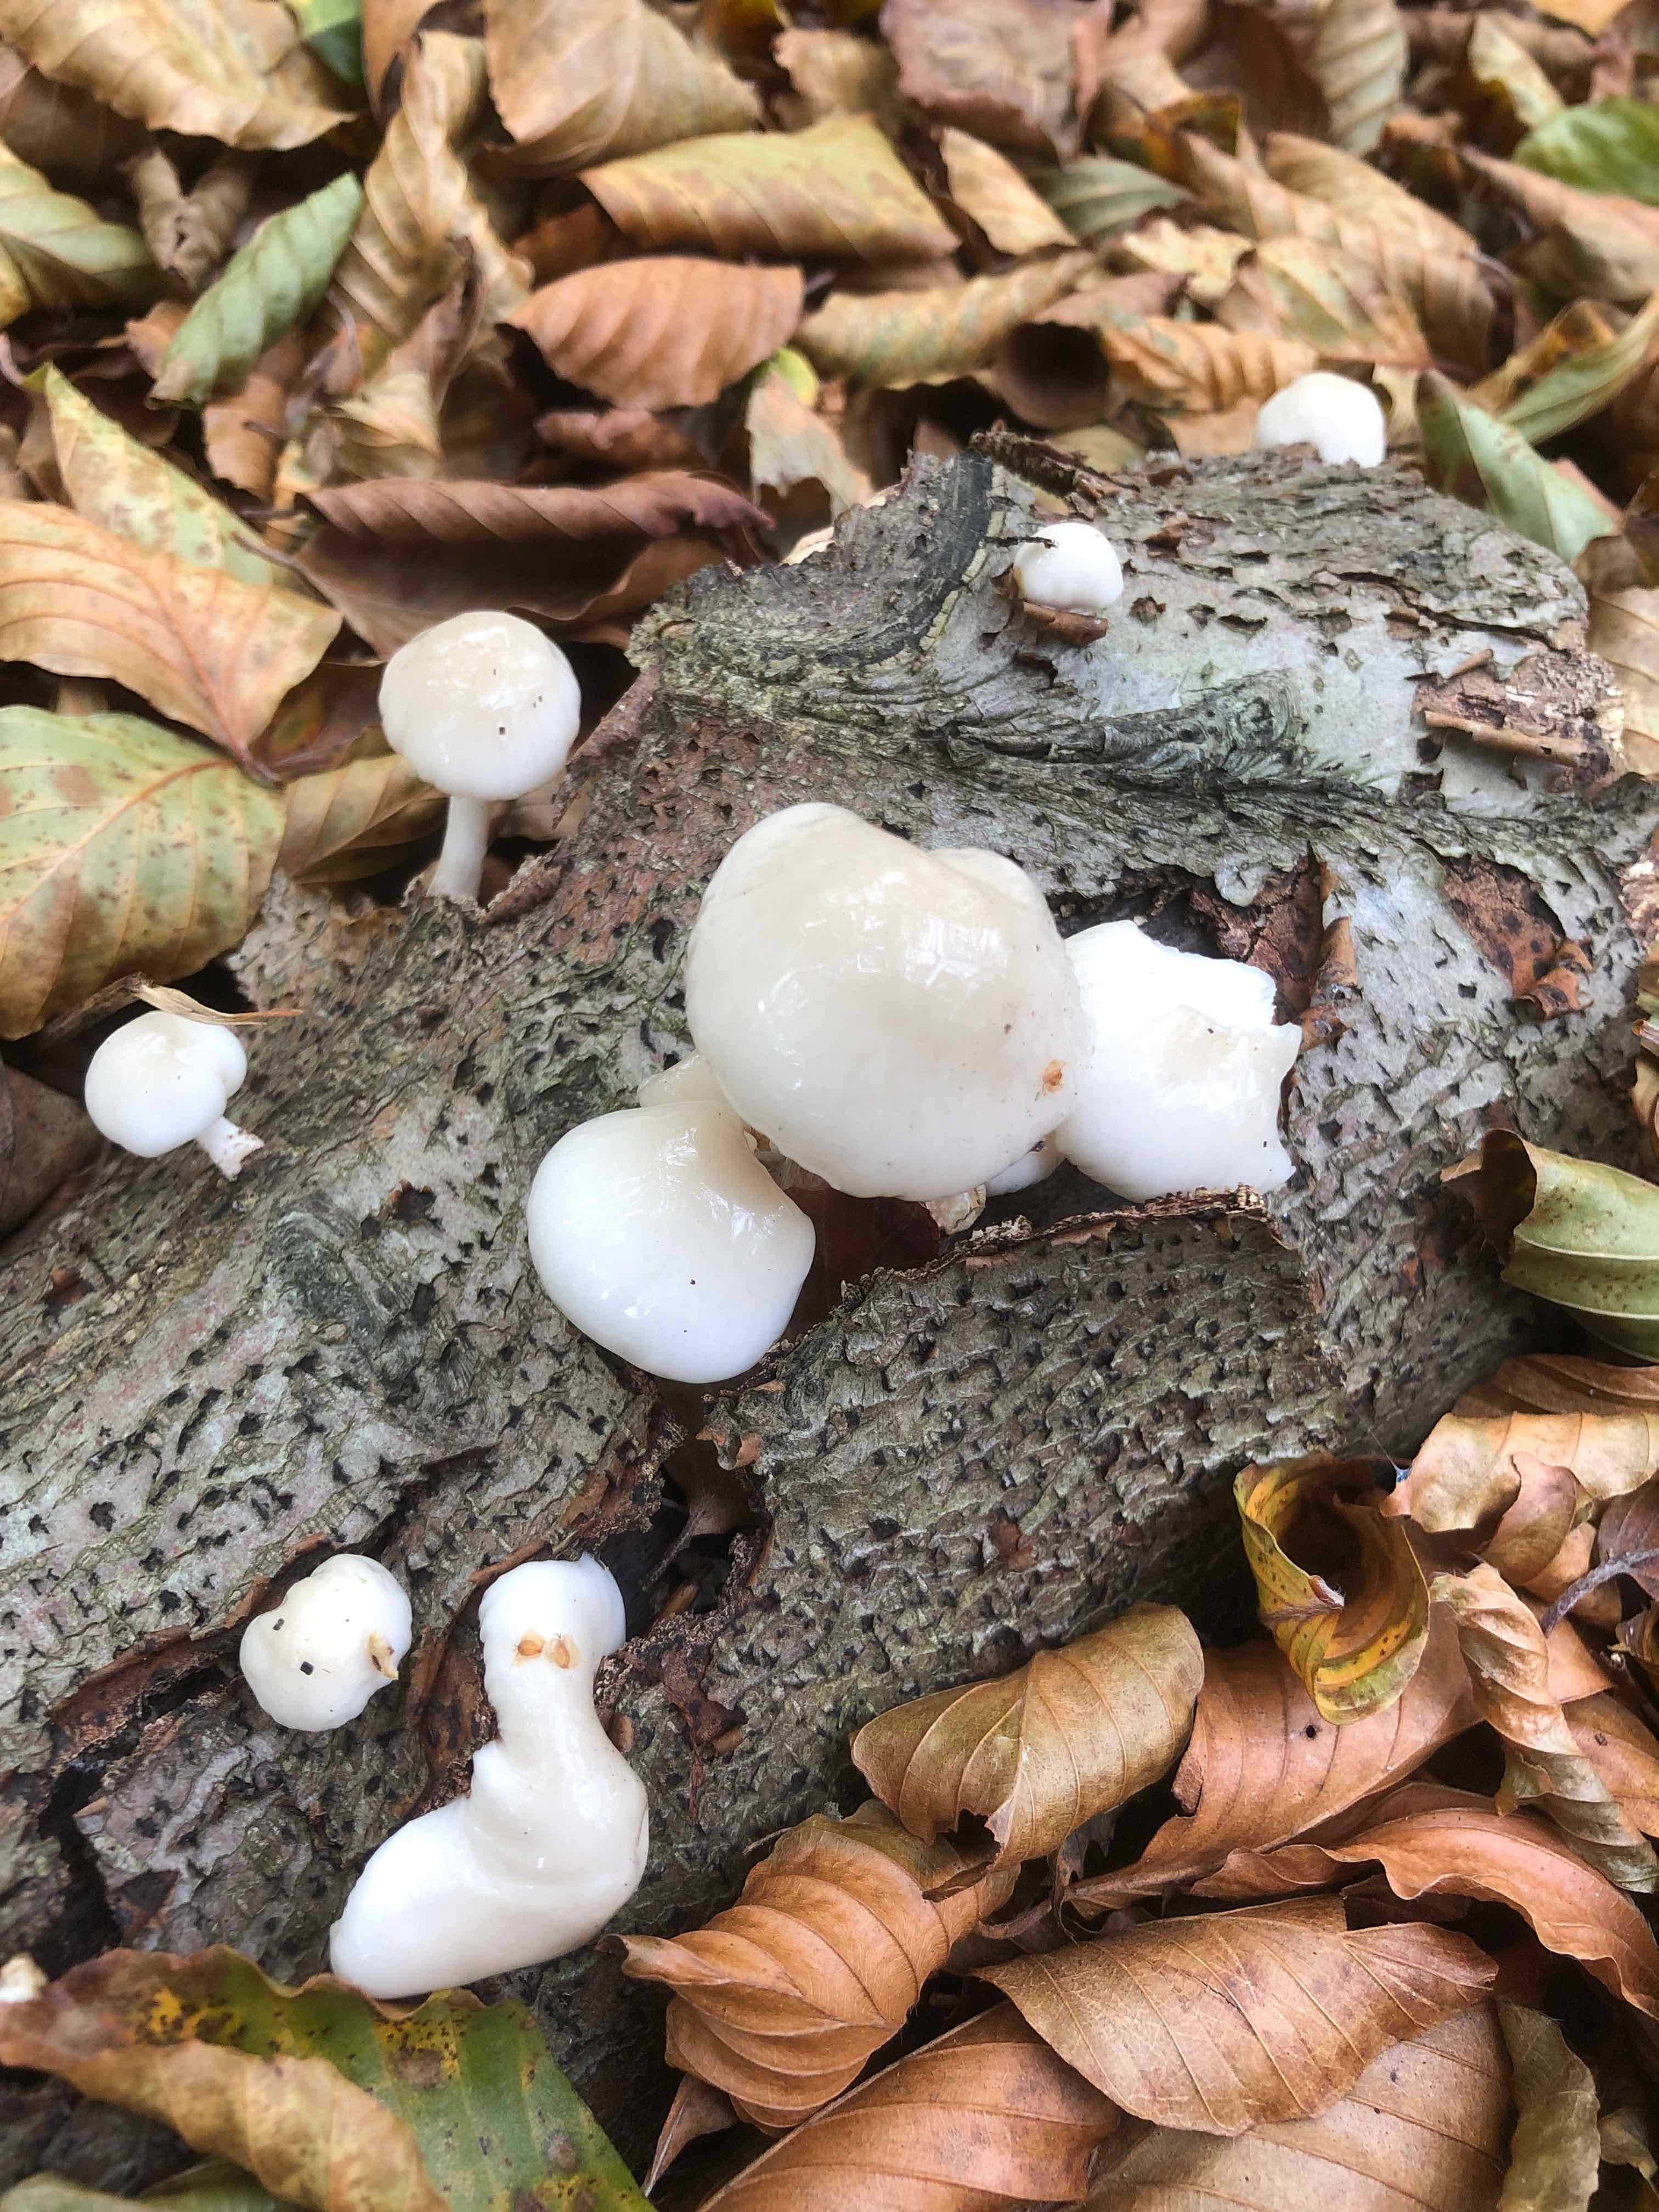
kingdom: Fungi
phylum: Basidiomycota
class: Agaricomycetes
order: Agaricales
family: Physalacriaceae
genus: Mucidula
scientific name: Mucidula mucida
